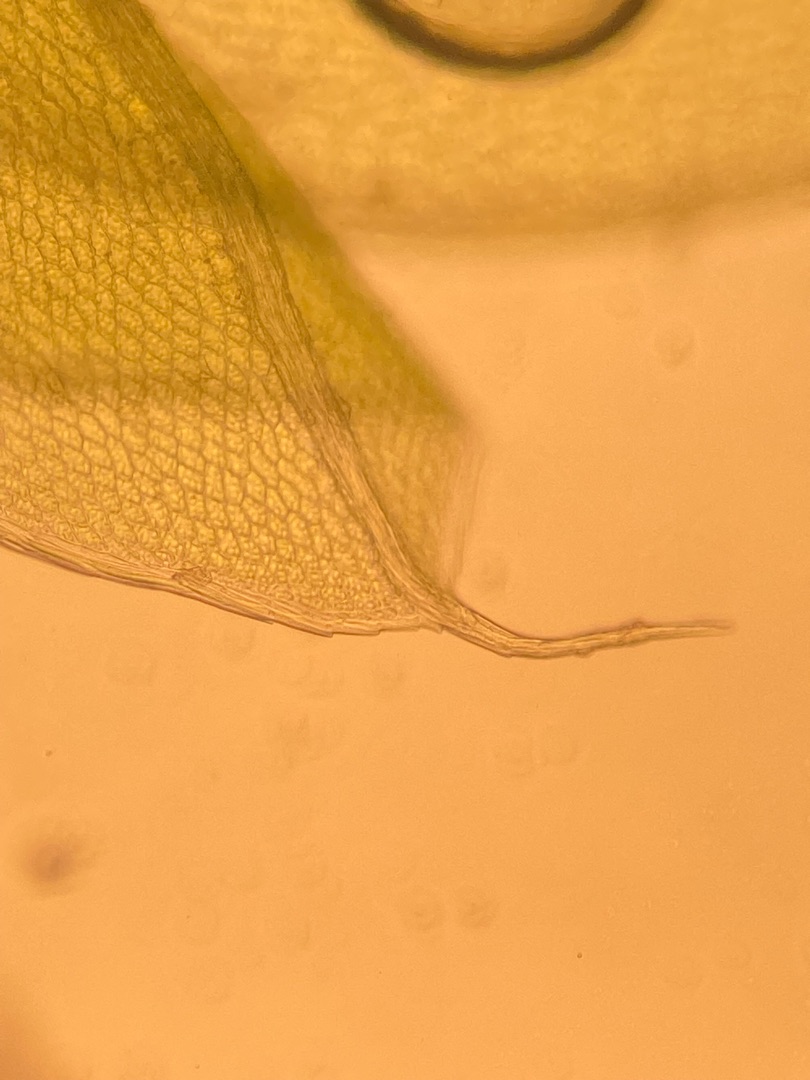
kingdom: Plantae
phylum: Bryophyta
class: Bryopsida
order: Bryales
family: Bryaceae
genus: Rosulabryum
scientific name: Rosulabryum capillare
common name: Hårspidset bryum
